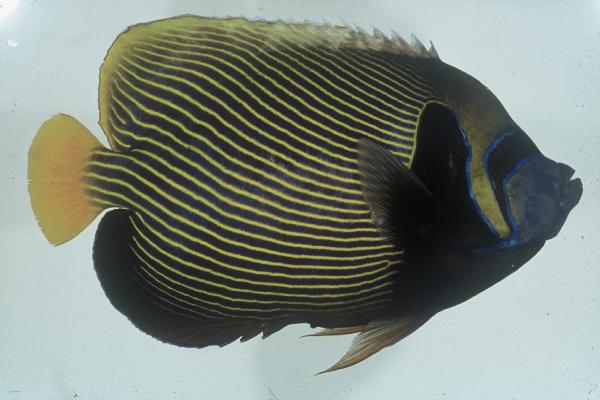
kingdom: Animalia
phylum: Chordata
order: Perciformes
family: Pomacanthidae
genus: Pomacanthus
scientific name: Pomacanthus imperator
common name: Emperor angelfish
